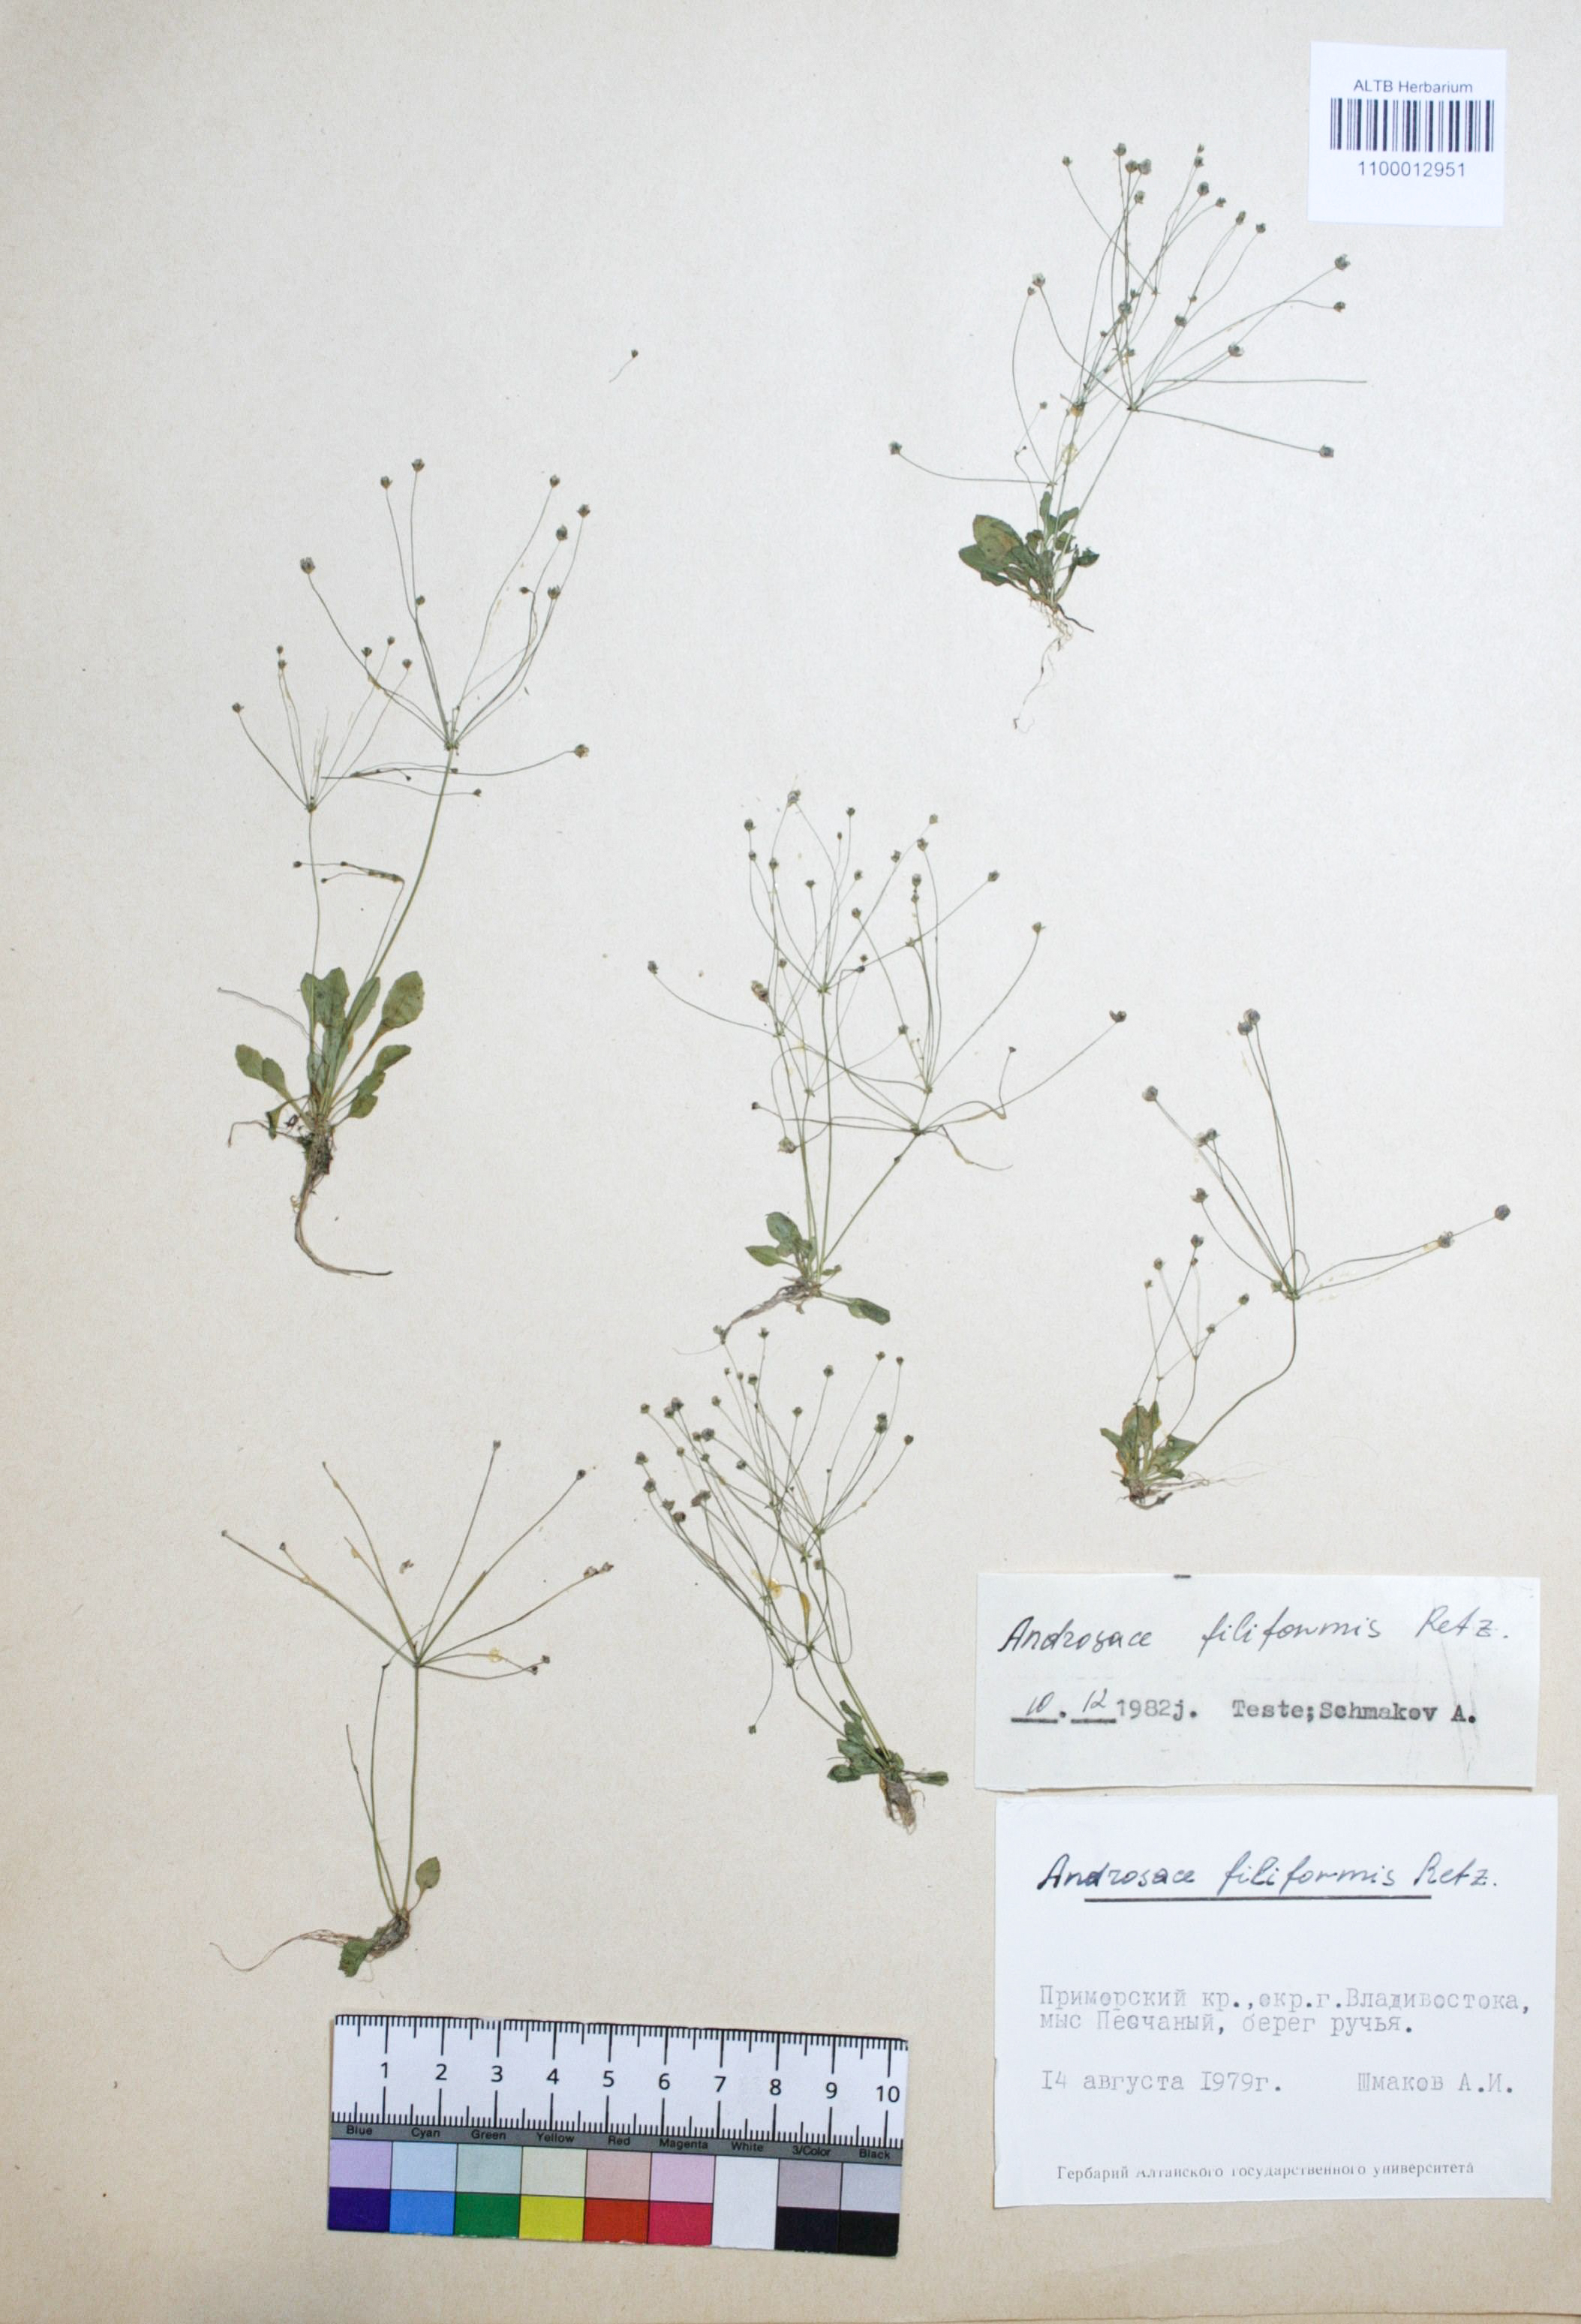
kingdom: Plantae
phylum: Tracheophyta
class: Magnoliopsida
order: Ericales
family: Primulaceae
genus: Androsace
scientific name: Androsace filiformis
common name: Filiform rock jasmine
